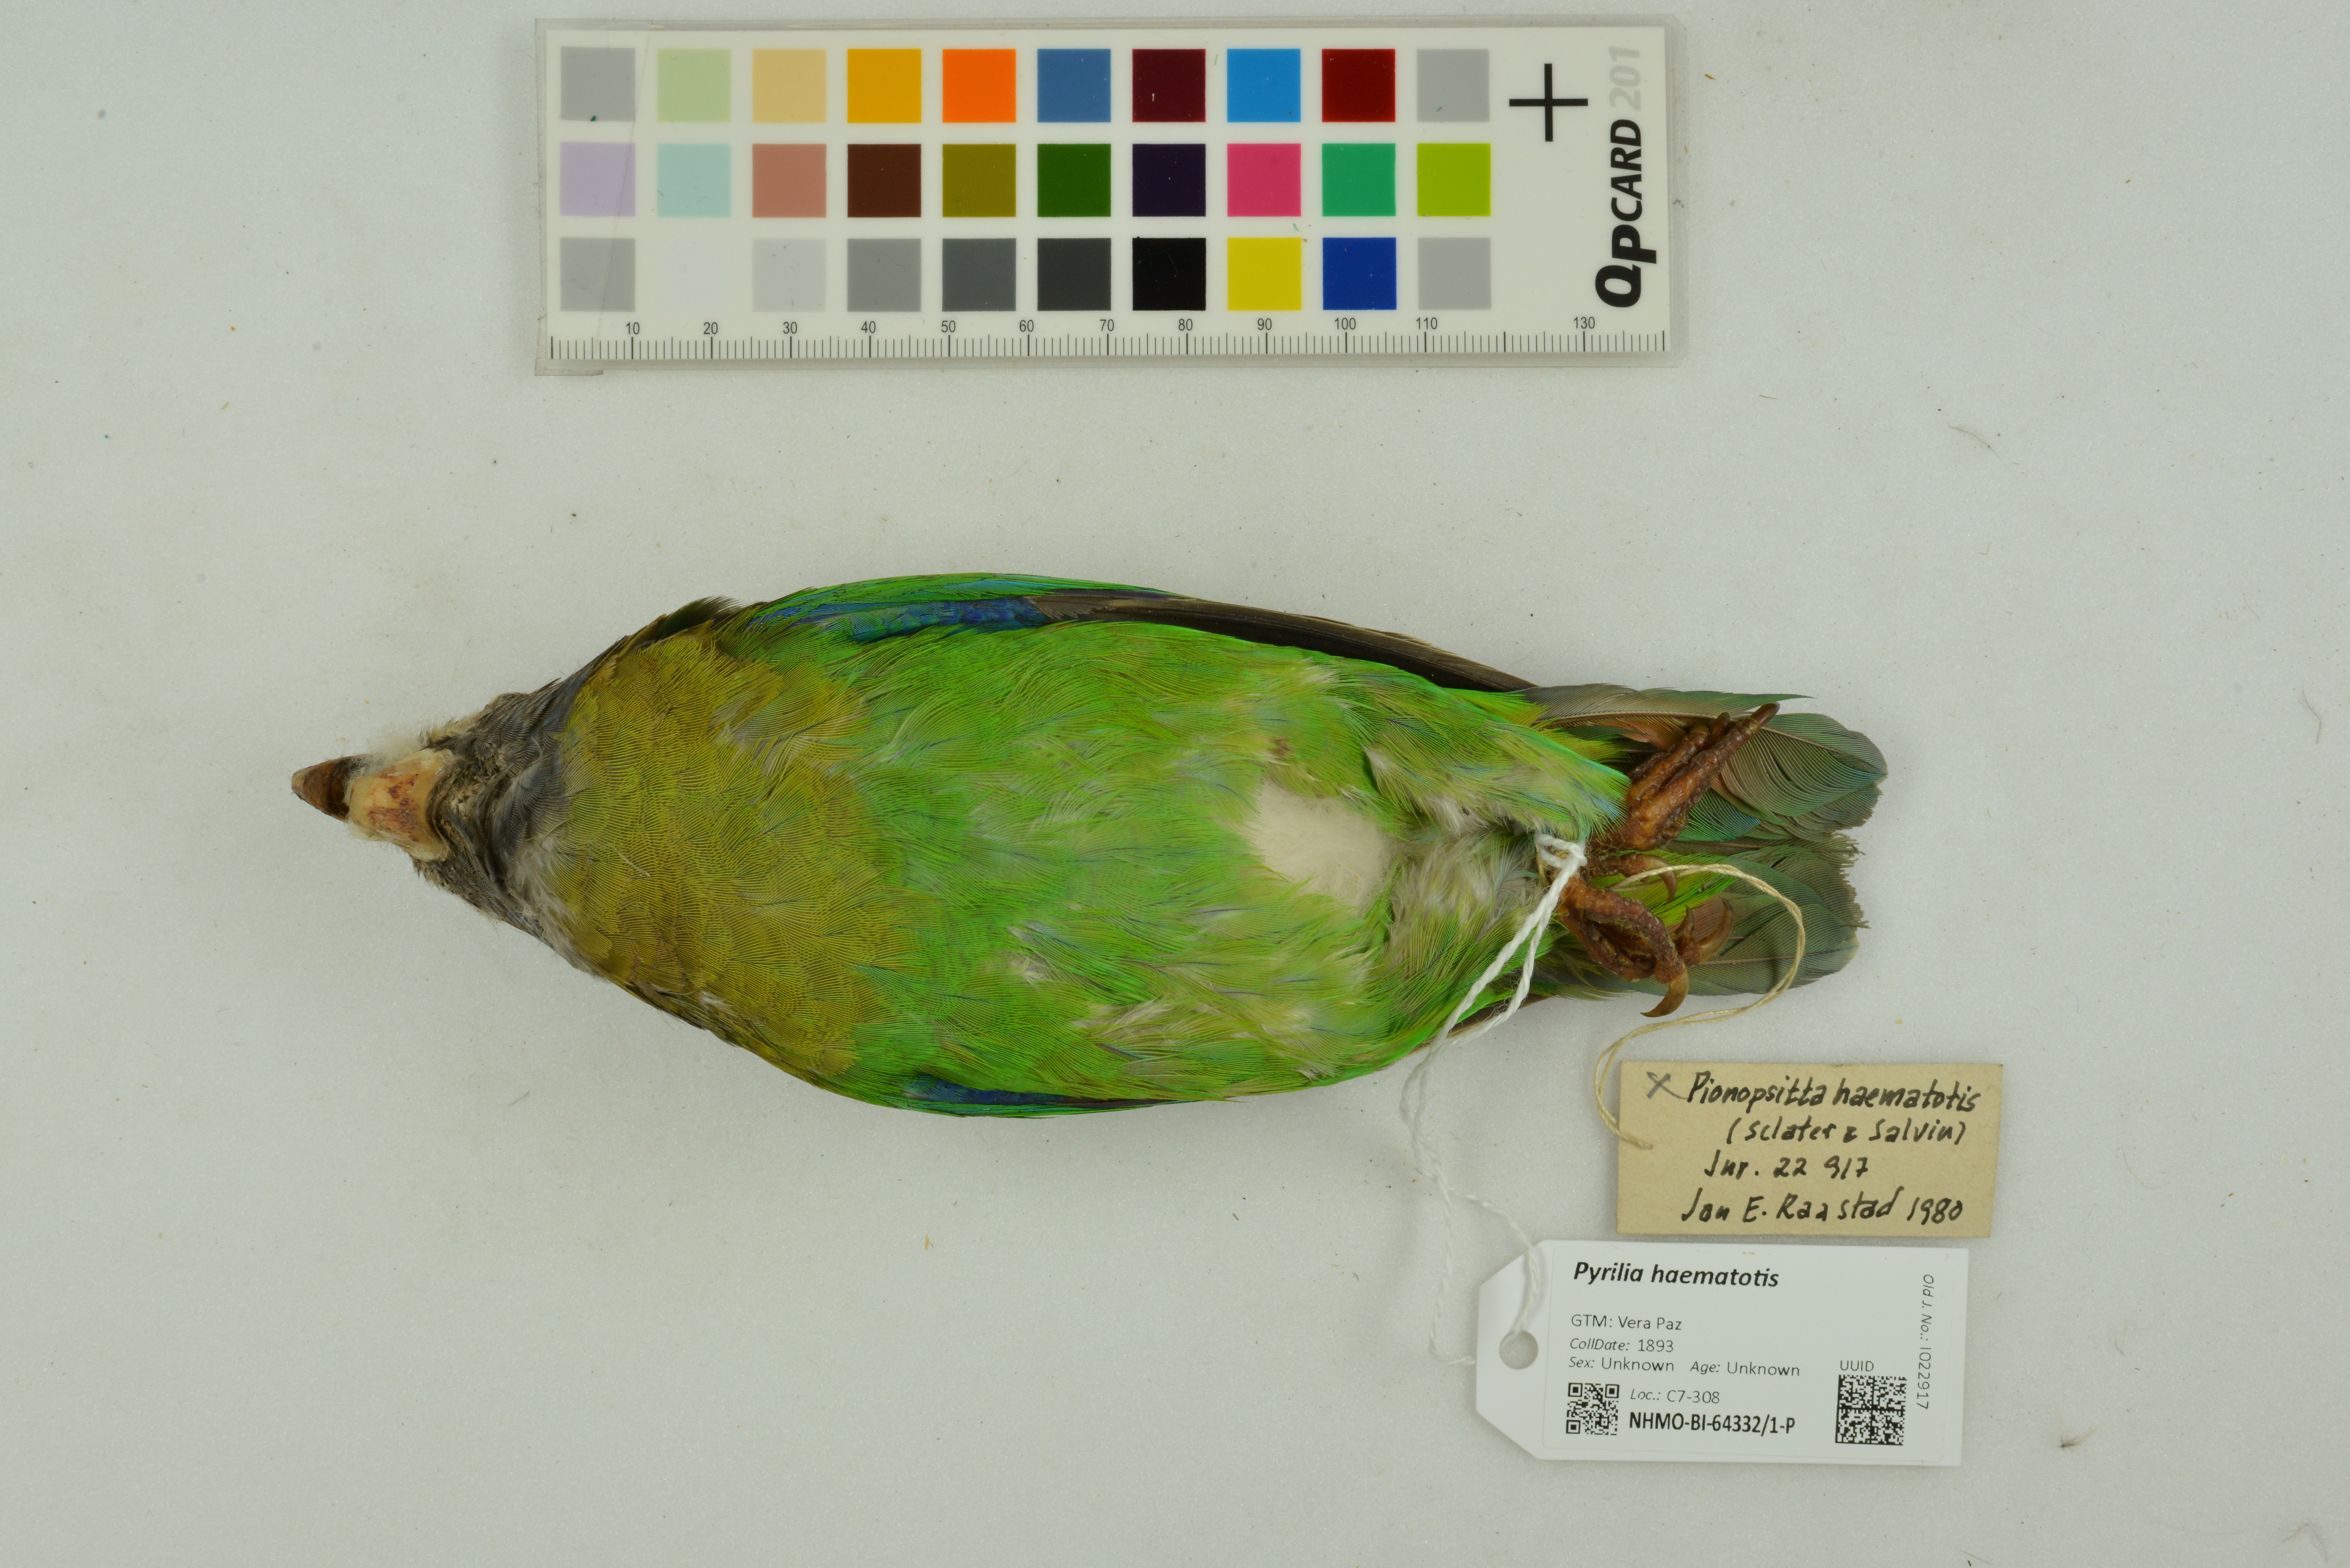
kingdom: Animalia
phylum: Chordata
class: Aves
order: Psittaciformes
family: Psittacidae
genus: Pionopsitta
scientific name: Pionopsitta haematotis
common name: Brown-hooded parrot
